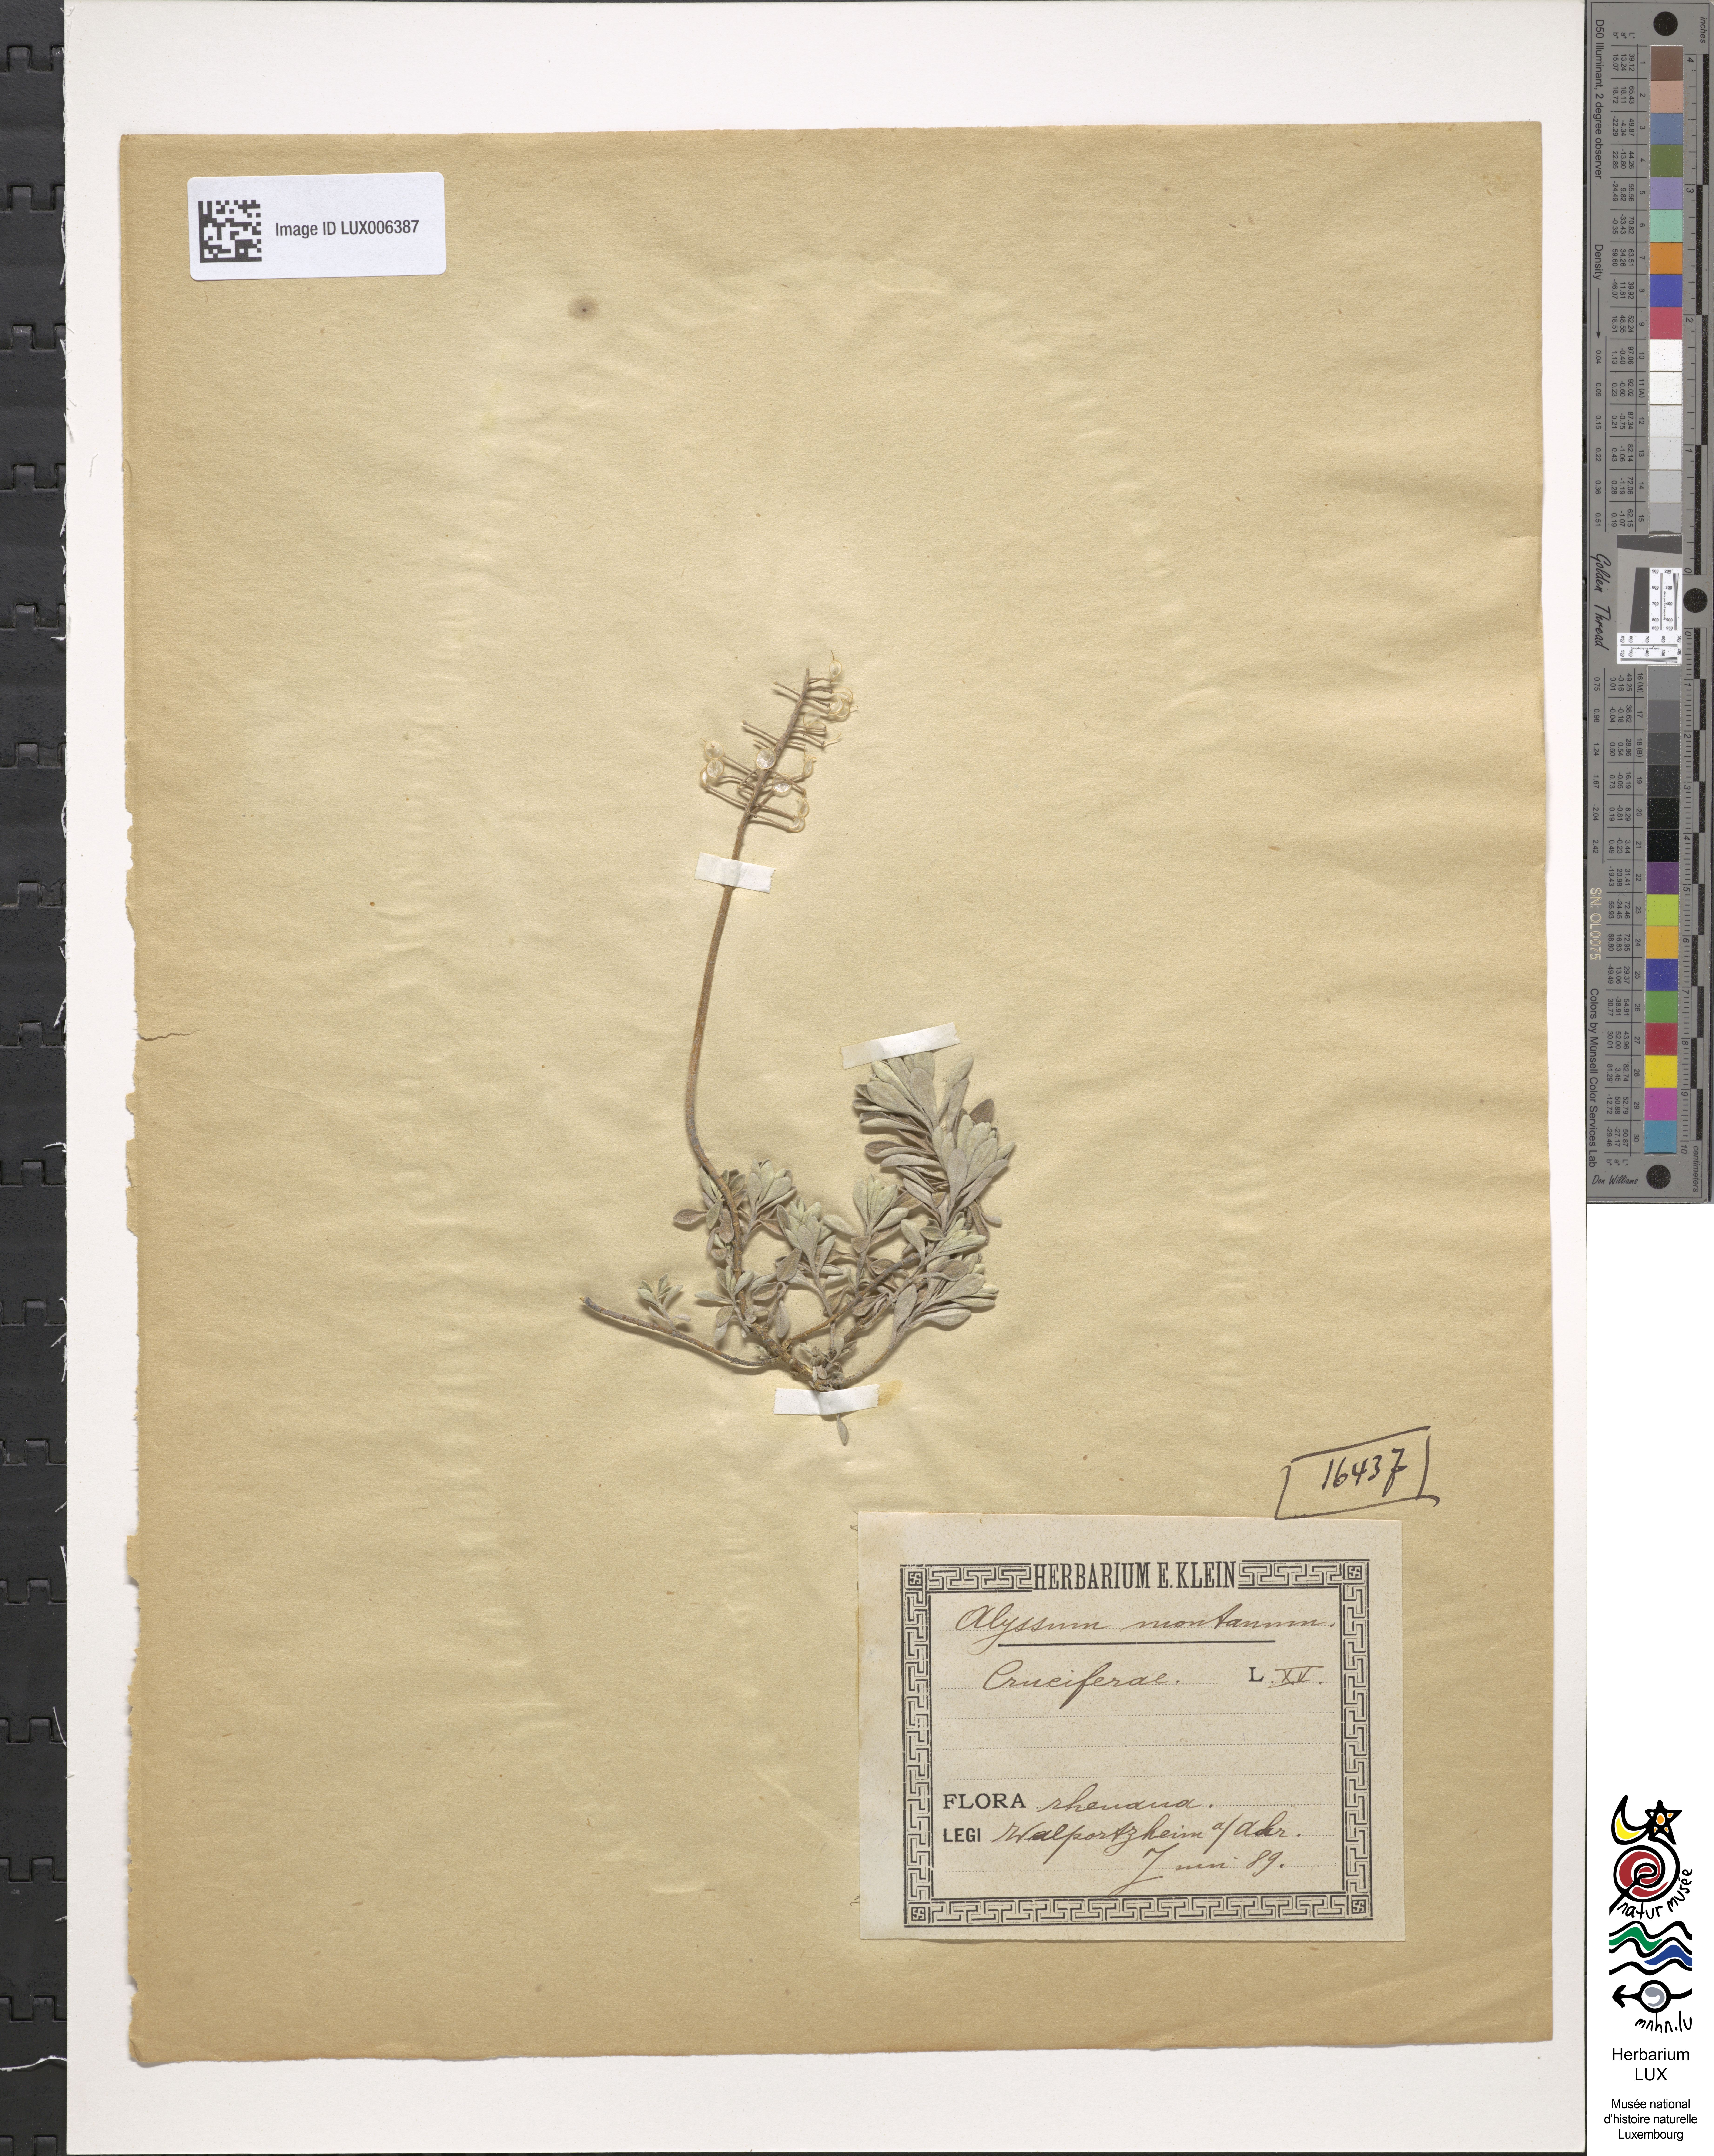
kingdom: Plantae
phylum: Tracheophyta
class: Magnoliopsida
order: Brassicales
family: Brassicaceae
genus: Alyssum
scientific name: Alyssum montanum
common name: Mountain alison
